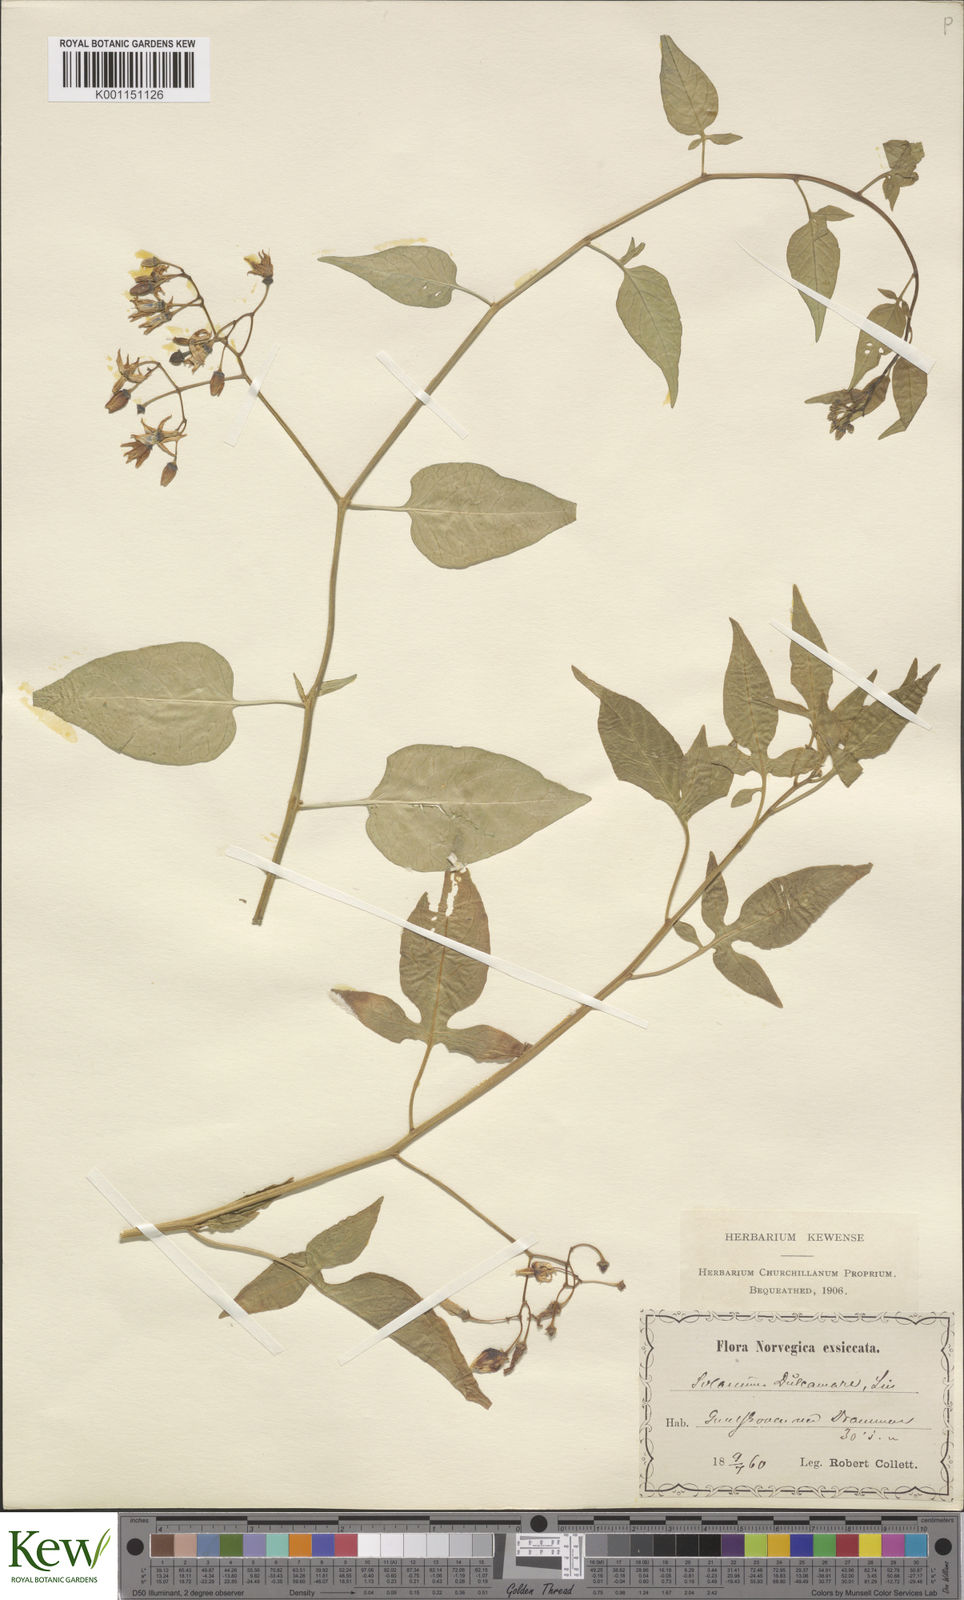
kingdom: Plantae
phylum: Tracheophyta
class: Magnoliopsida
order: Solanales
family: Solanaceae
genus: Solanum
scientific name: Solanum dulcamara
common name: Climbing nightshade
